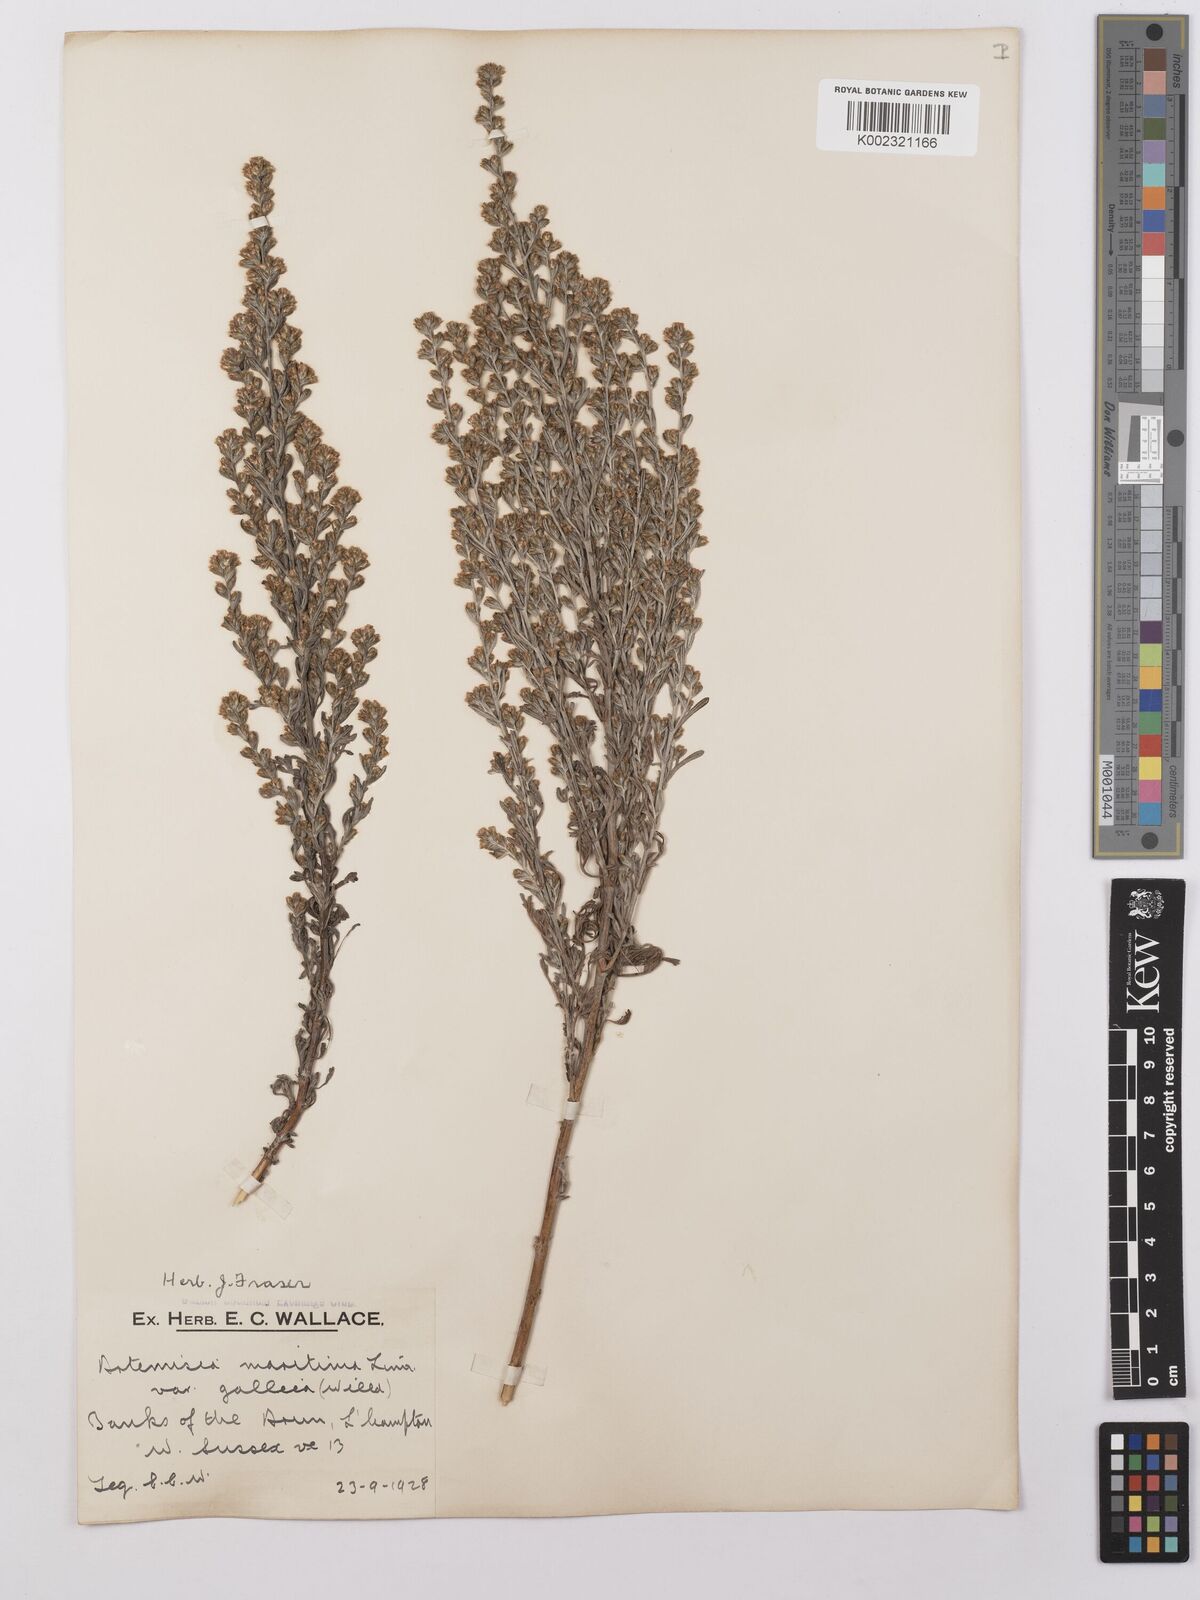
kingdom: Plantae
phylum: Tracheophyta
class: Magnoliopsida
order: Asterales
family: Asteraceae
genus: Artemisia
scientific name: Artemisia maritima
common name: Wormseed
